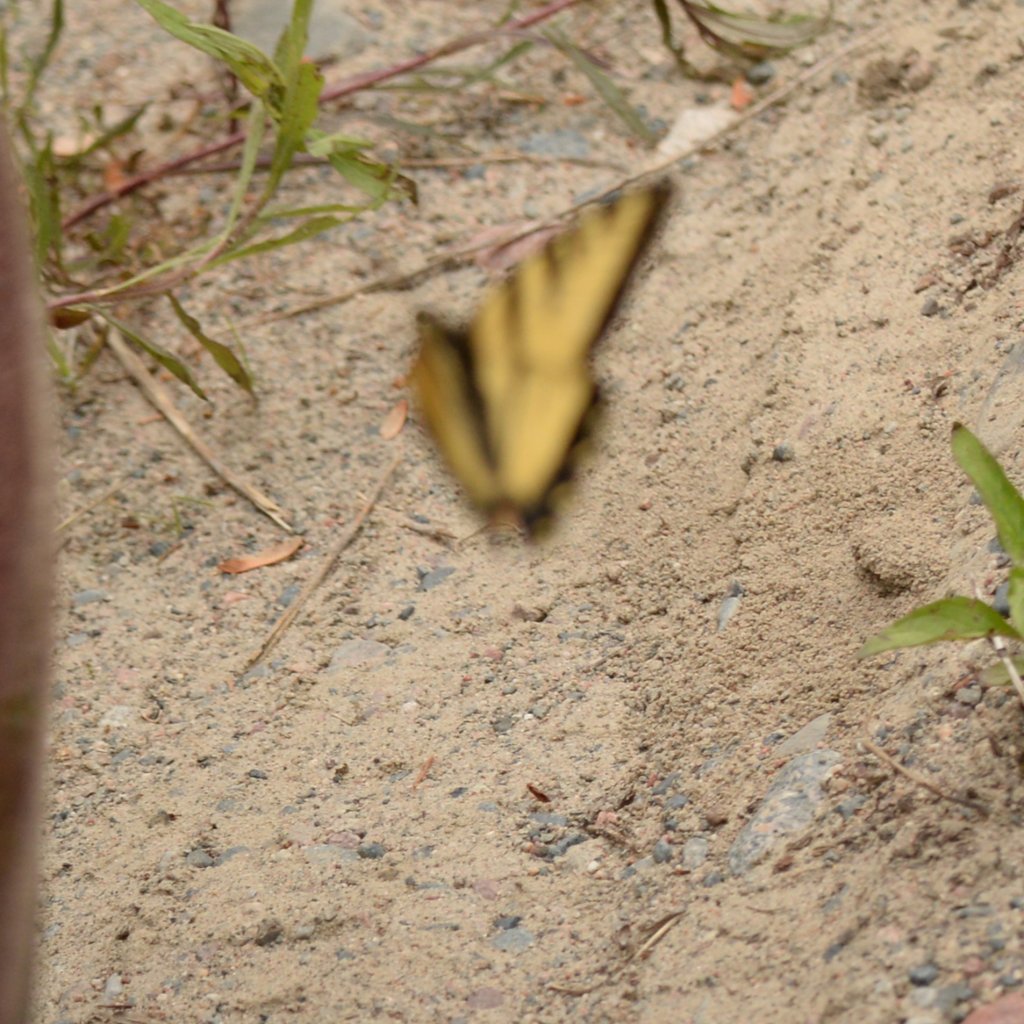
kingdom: Animalia
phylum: Arthropoda
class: Insecta
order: Lepidoptera
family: Papilionidae
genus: Pterourus
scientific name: Pterourus canadensis
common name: Canadian Tiger Swallowtail
